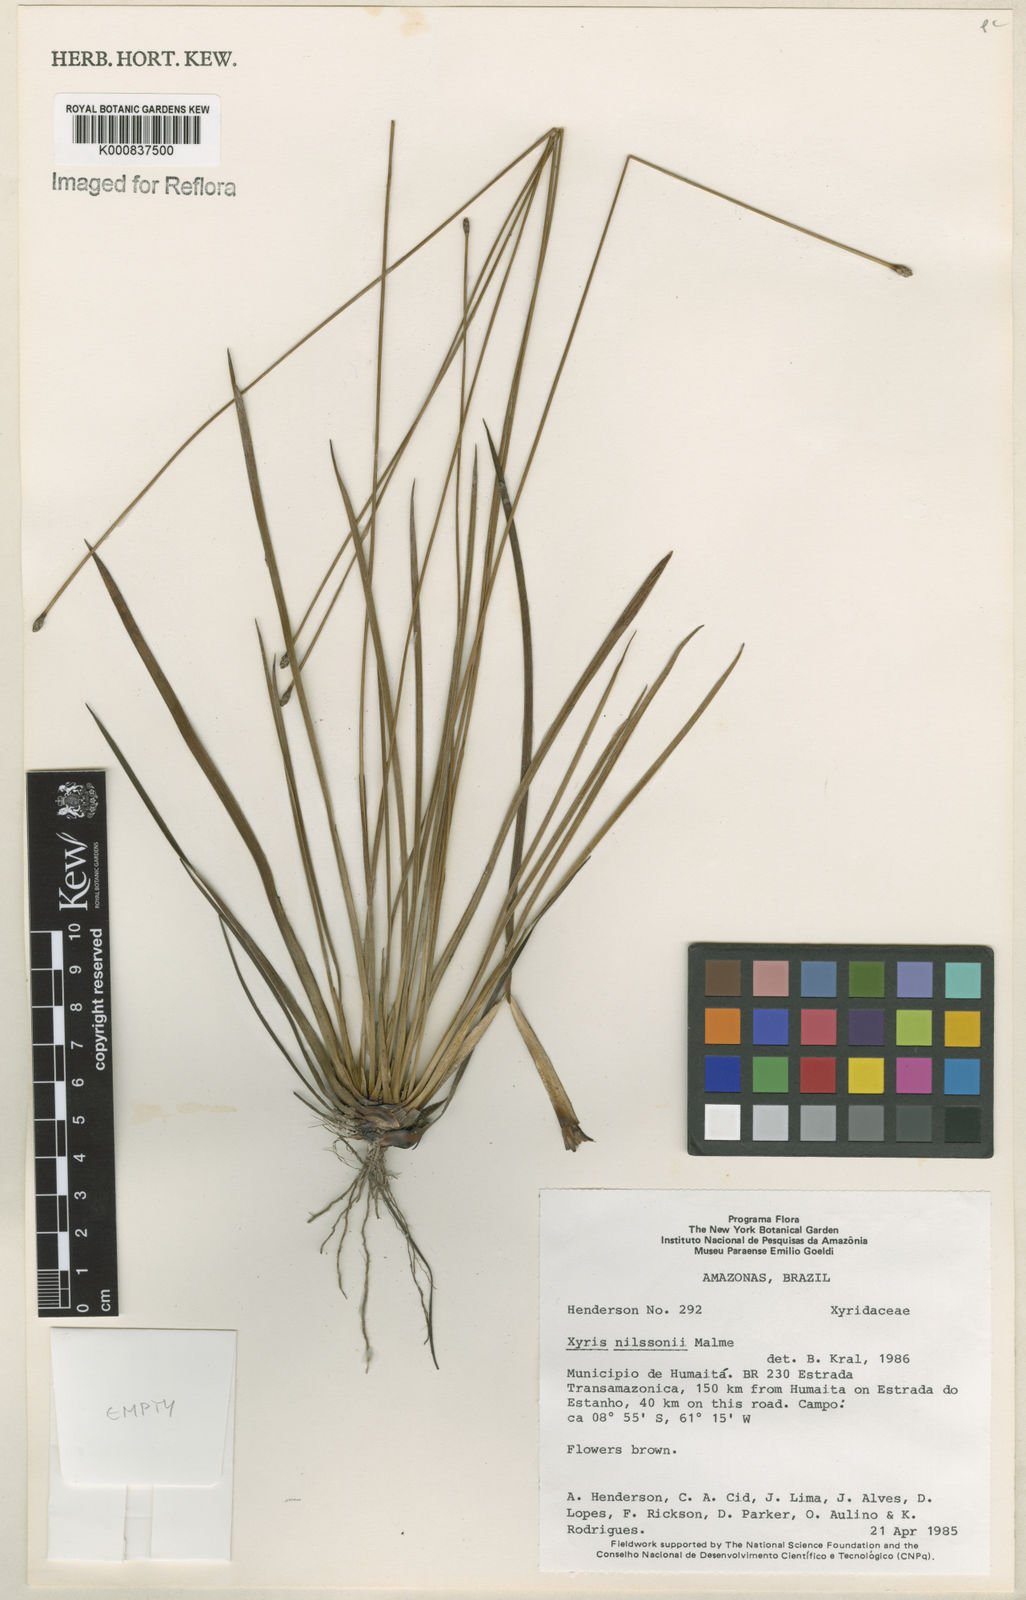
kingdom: Plantae
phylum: Tracheophyta
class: Liliopsida
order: Poales
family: Xyridaceae
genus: Xyris
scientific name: Xyris nilssonii
